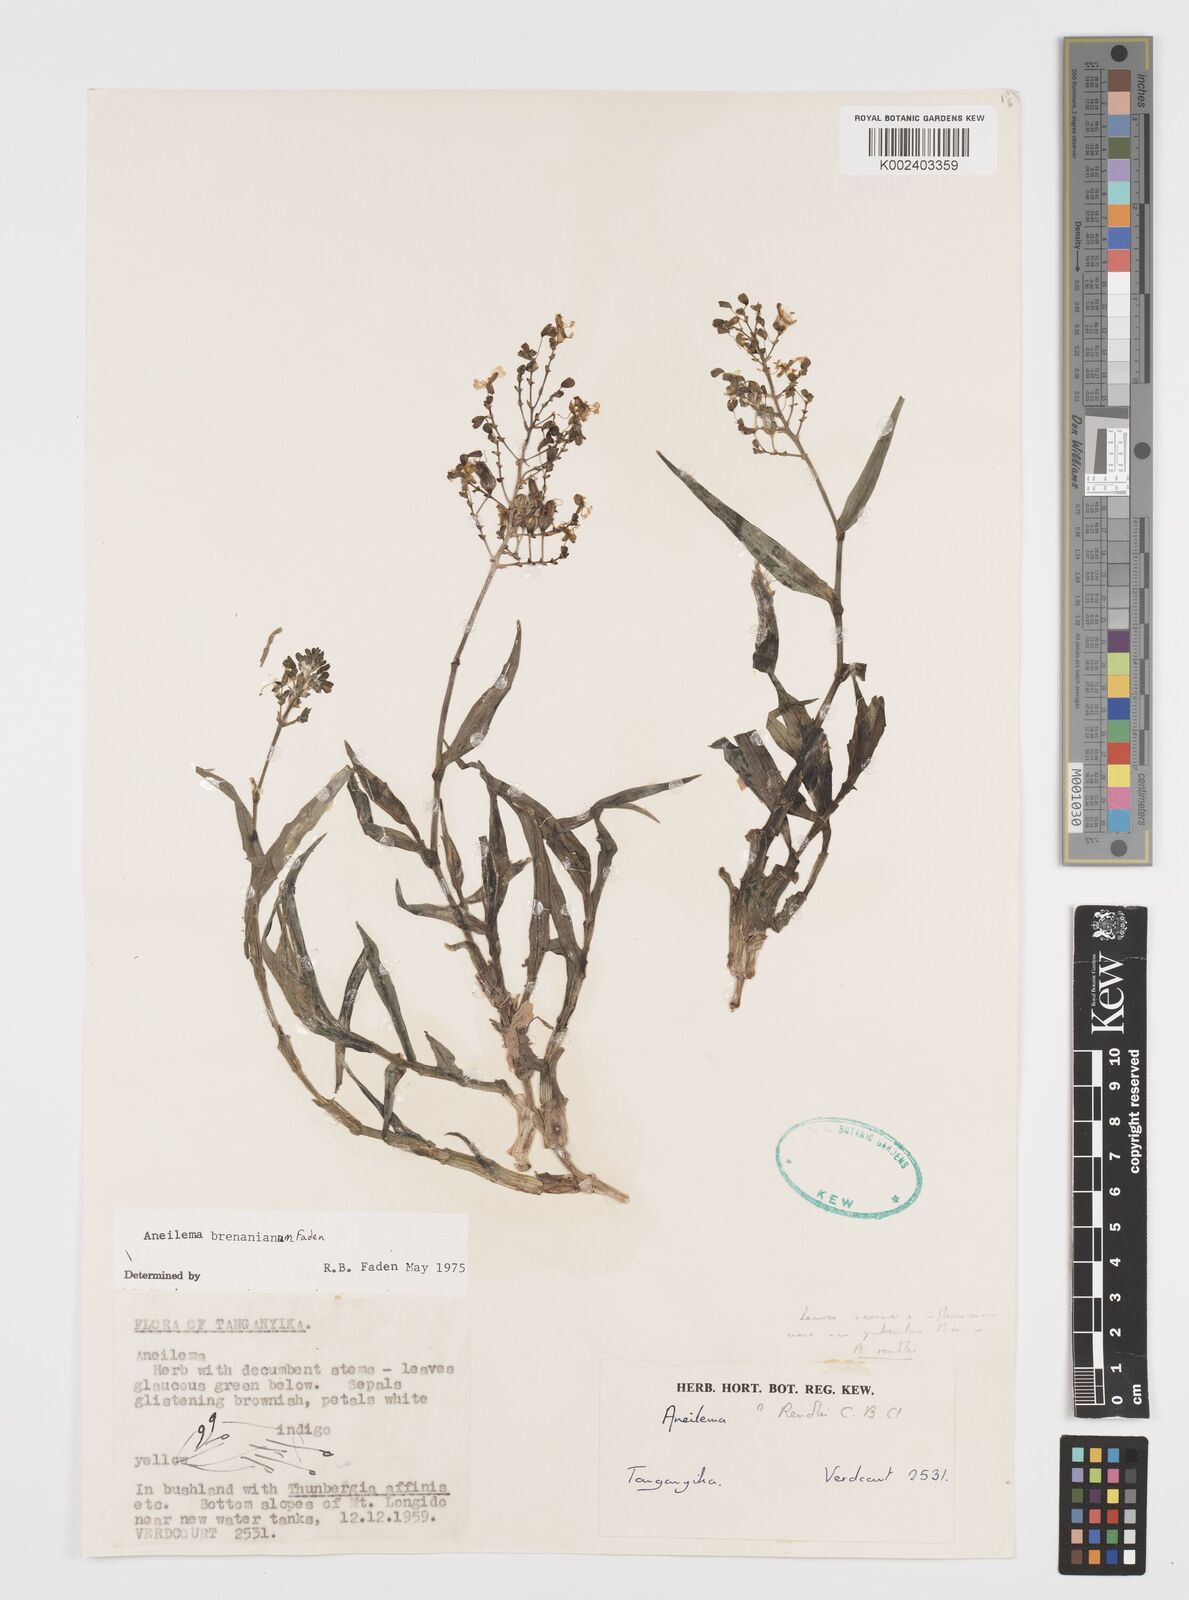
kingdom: Plantae
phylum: Tracheophyta
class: Liliopsida
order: Commelinales
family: Commelinaceae
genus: Aneilema
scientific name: Aneilema brenanianum
